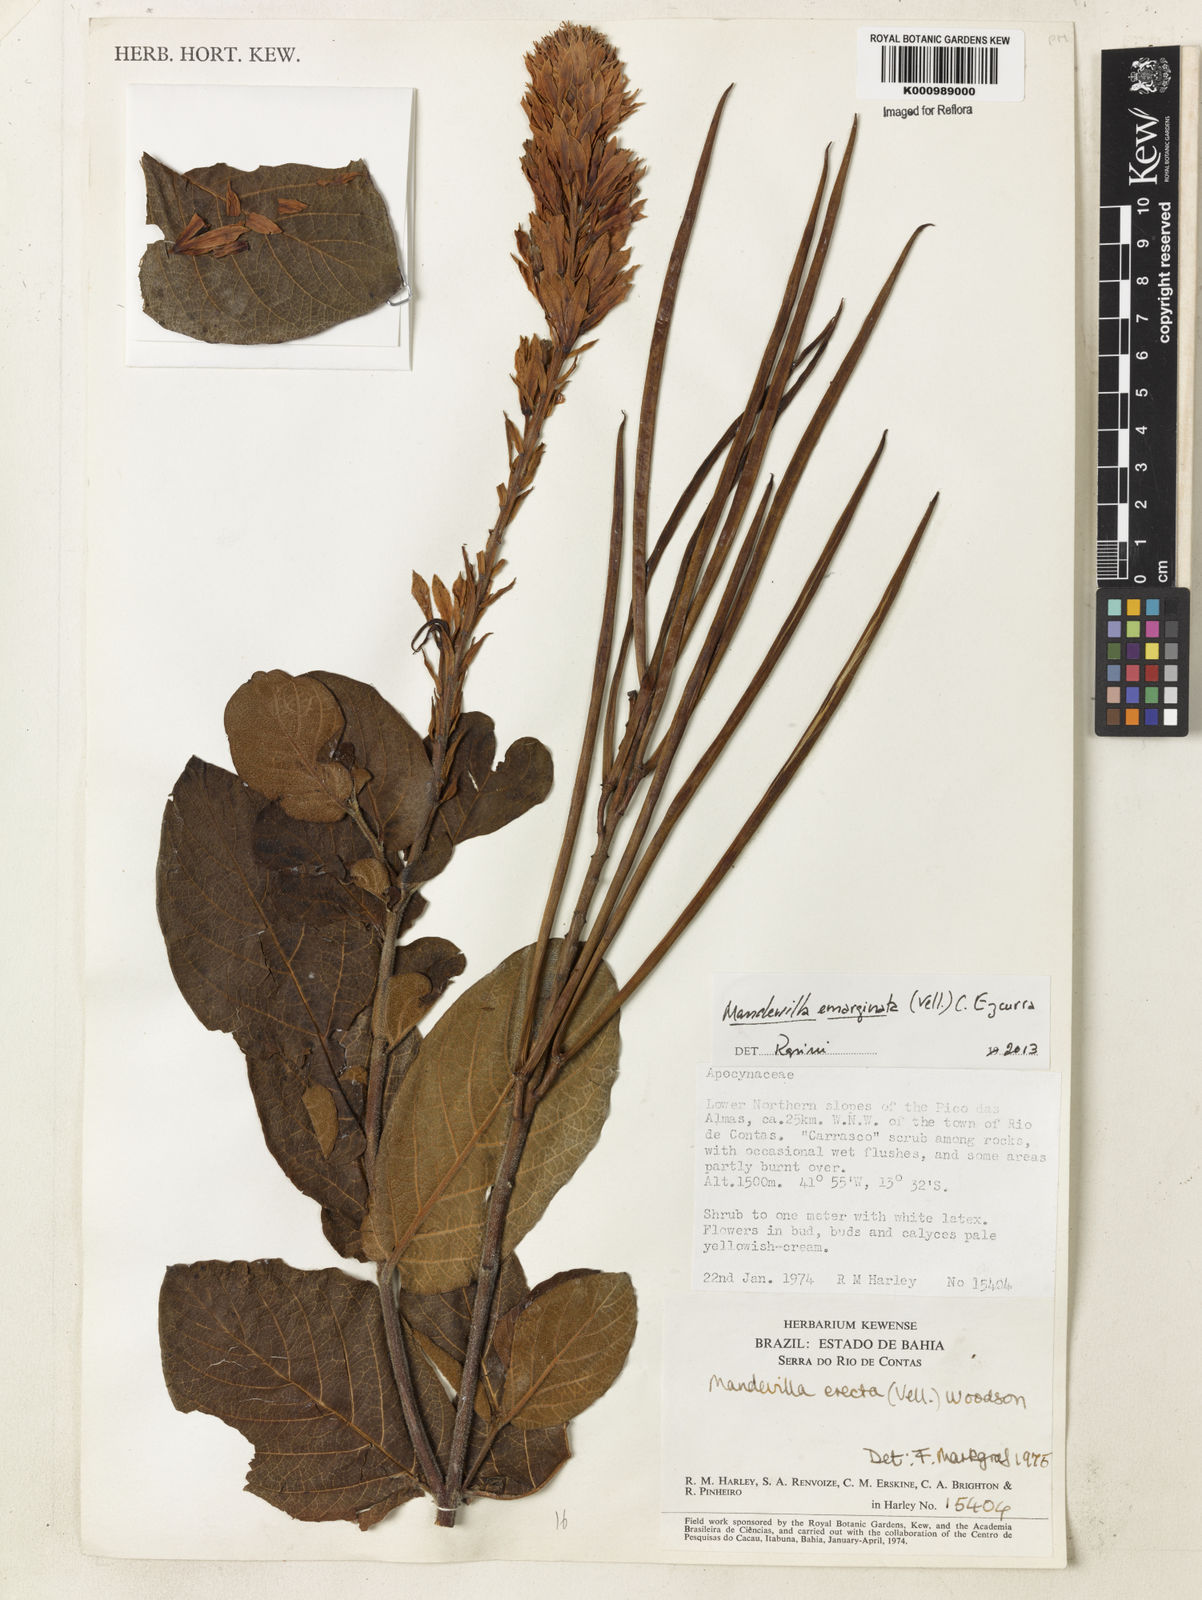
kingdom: Plantae
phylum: Tracheophyta
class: Magnoliopsida
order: Gentianales
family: Apocynaceae
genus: Mandevilla
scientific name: Mandevilla emarginata
